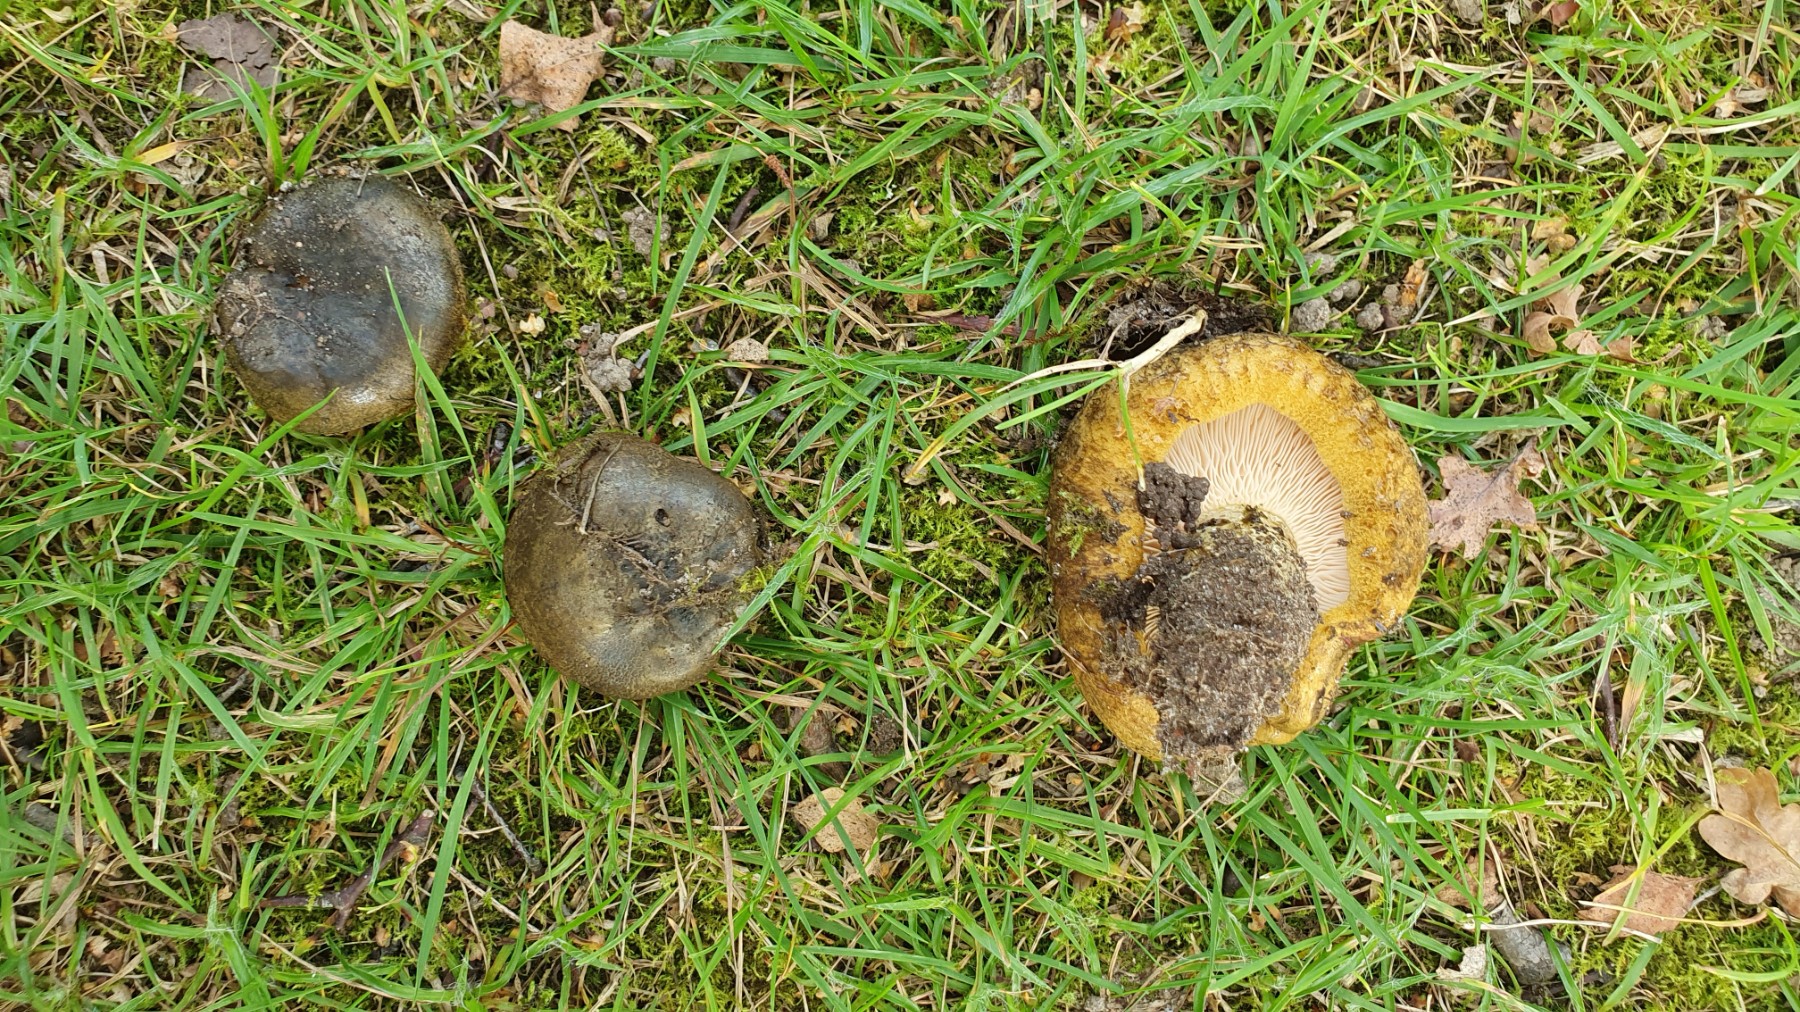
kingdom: Fungi
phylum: Basidiomycota
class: Agaricomycetes
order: Russulales
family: Russulaceae
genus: Lactarius
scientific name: Lactarius necator
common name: manddraber-mælkehat
